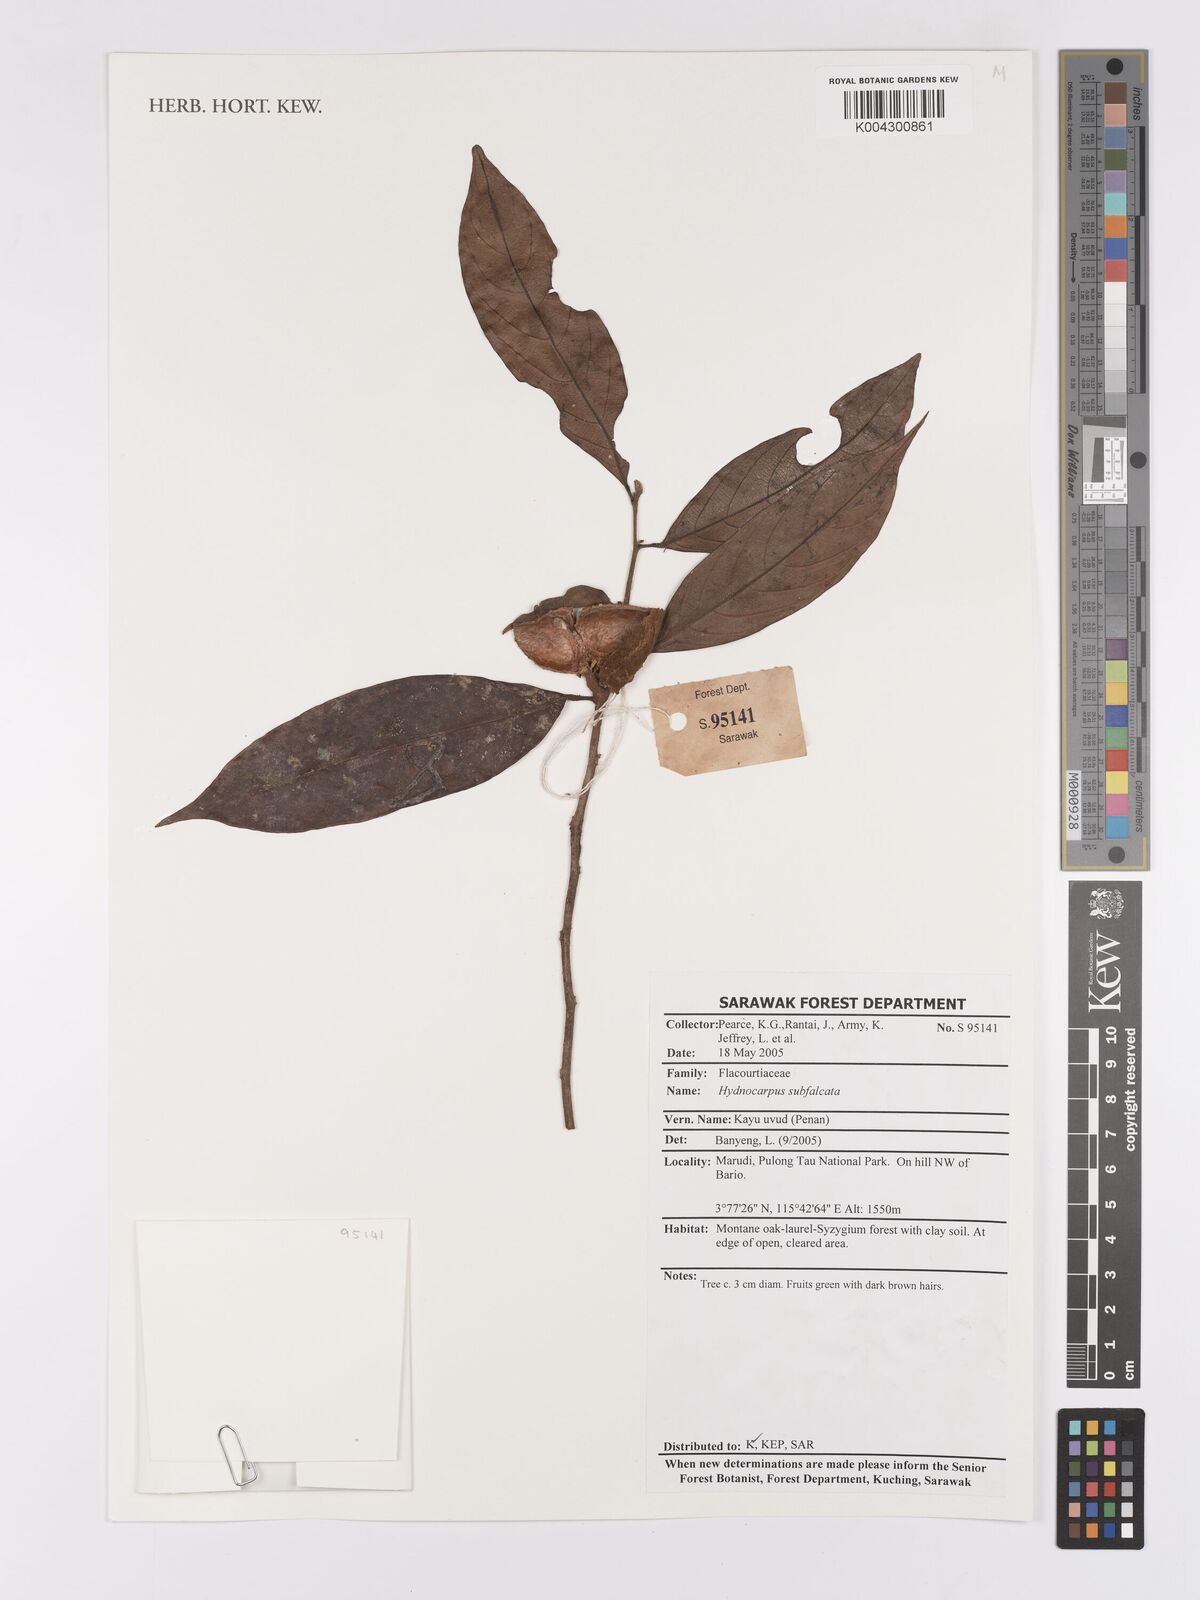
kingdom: Plantae
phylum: Tracheophyta
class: Magnoliopsida
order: Malpighiales
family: Achariaceae
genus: Hydnocarpus
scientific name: Hydnocarpus subfalcatus
